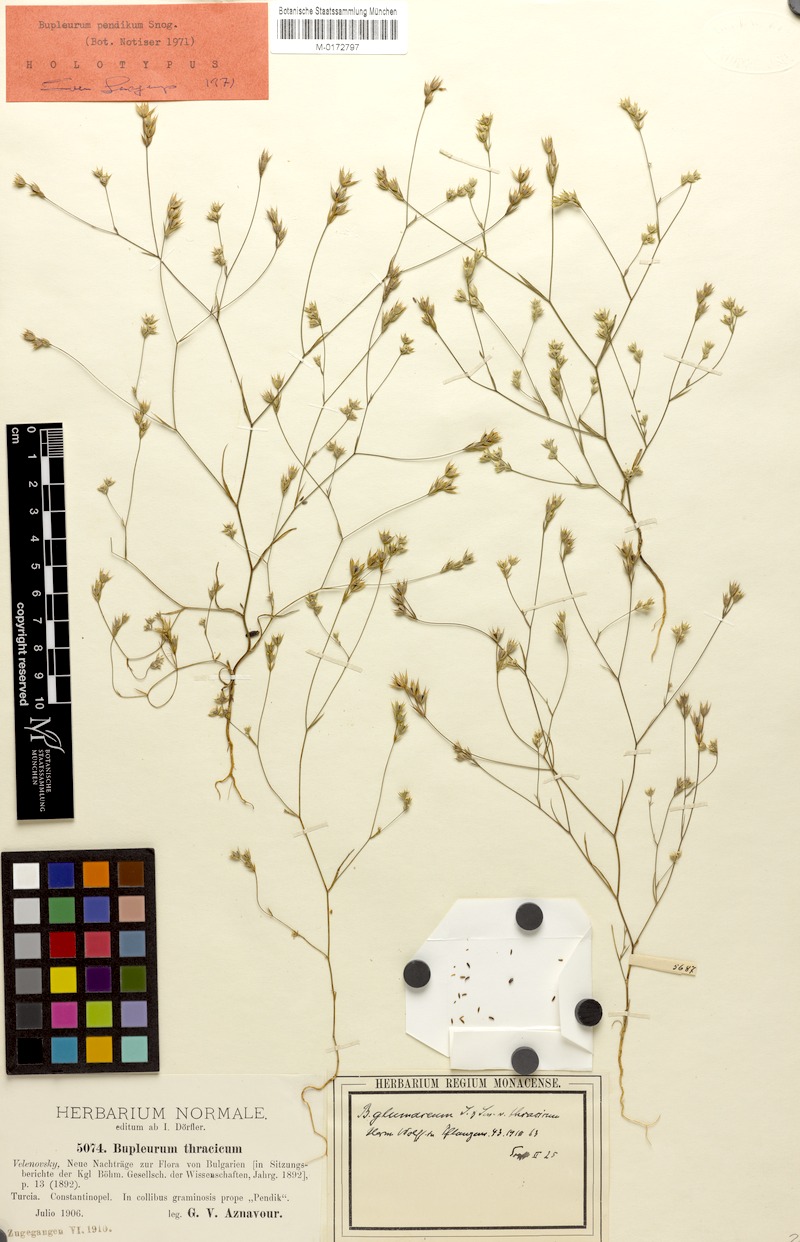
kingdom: Plantae
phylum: Tracheophyta
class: Magnoliopsida
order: Apiales
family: Apiaceae
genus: Bupleurum
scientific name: Bupleurum flavum
